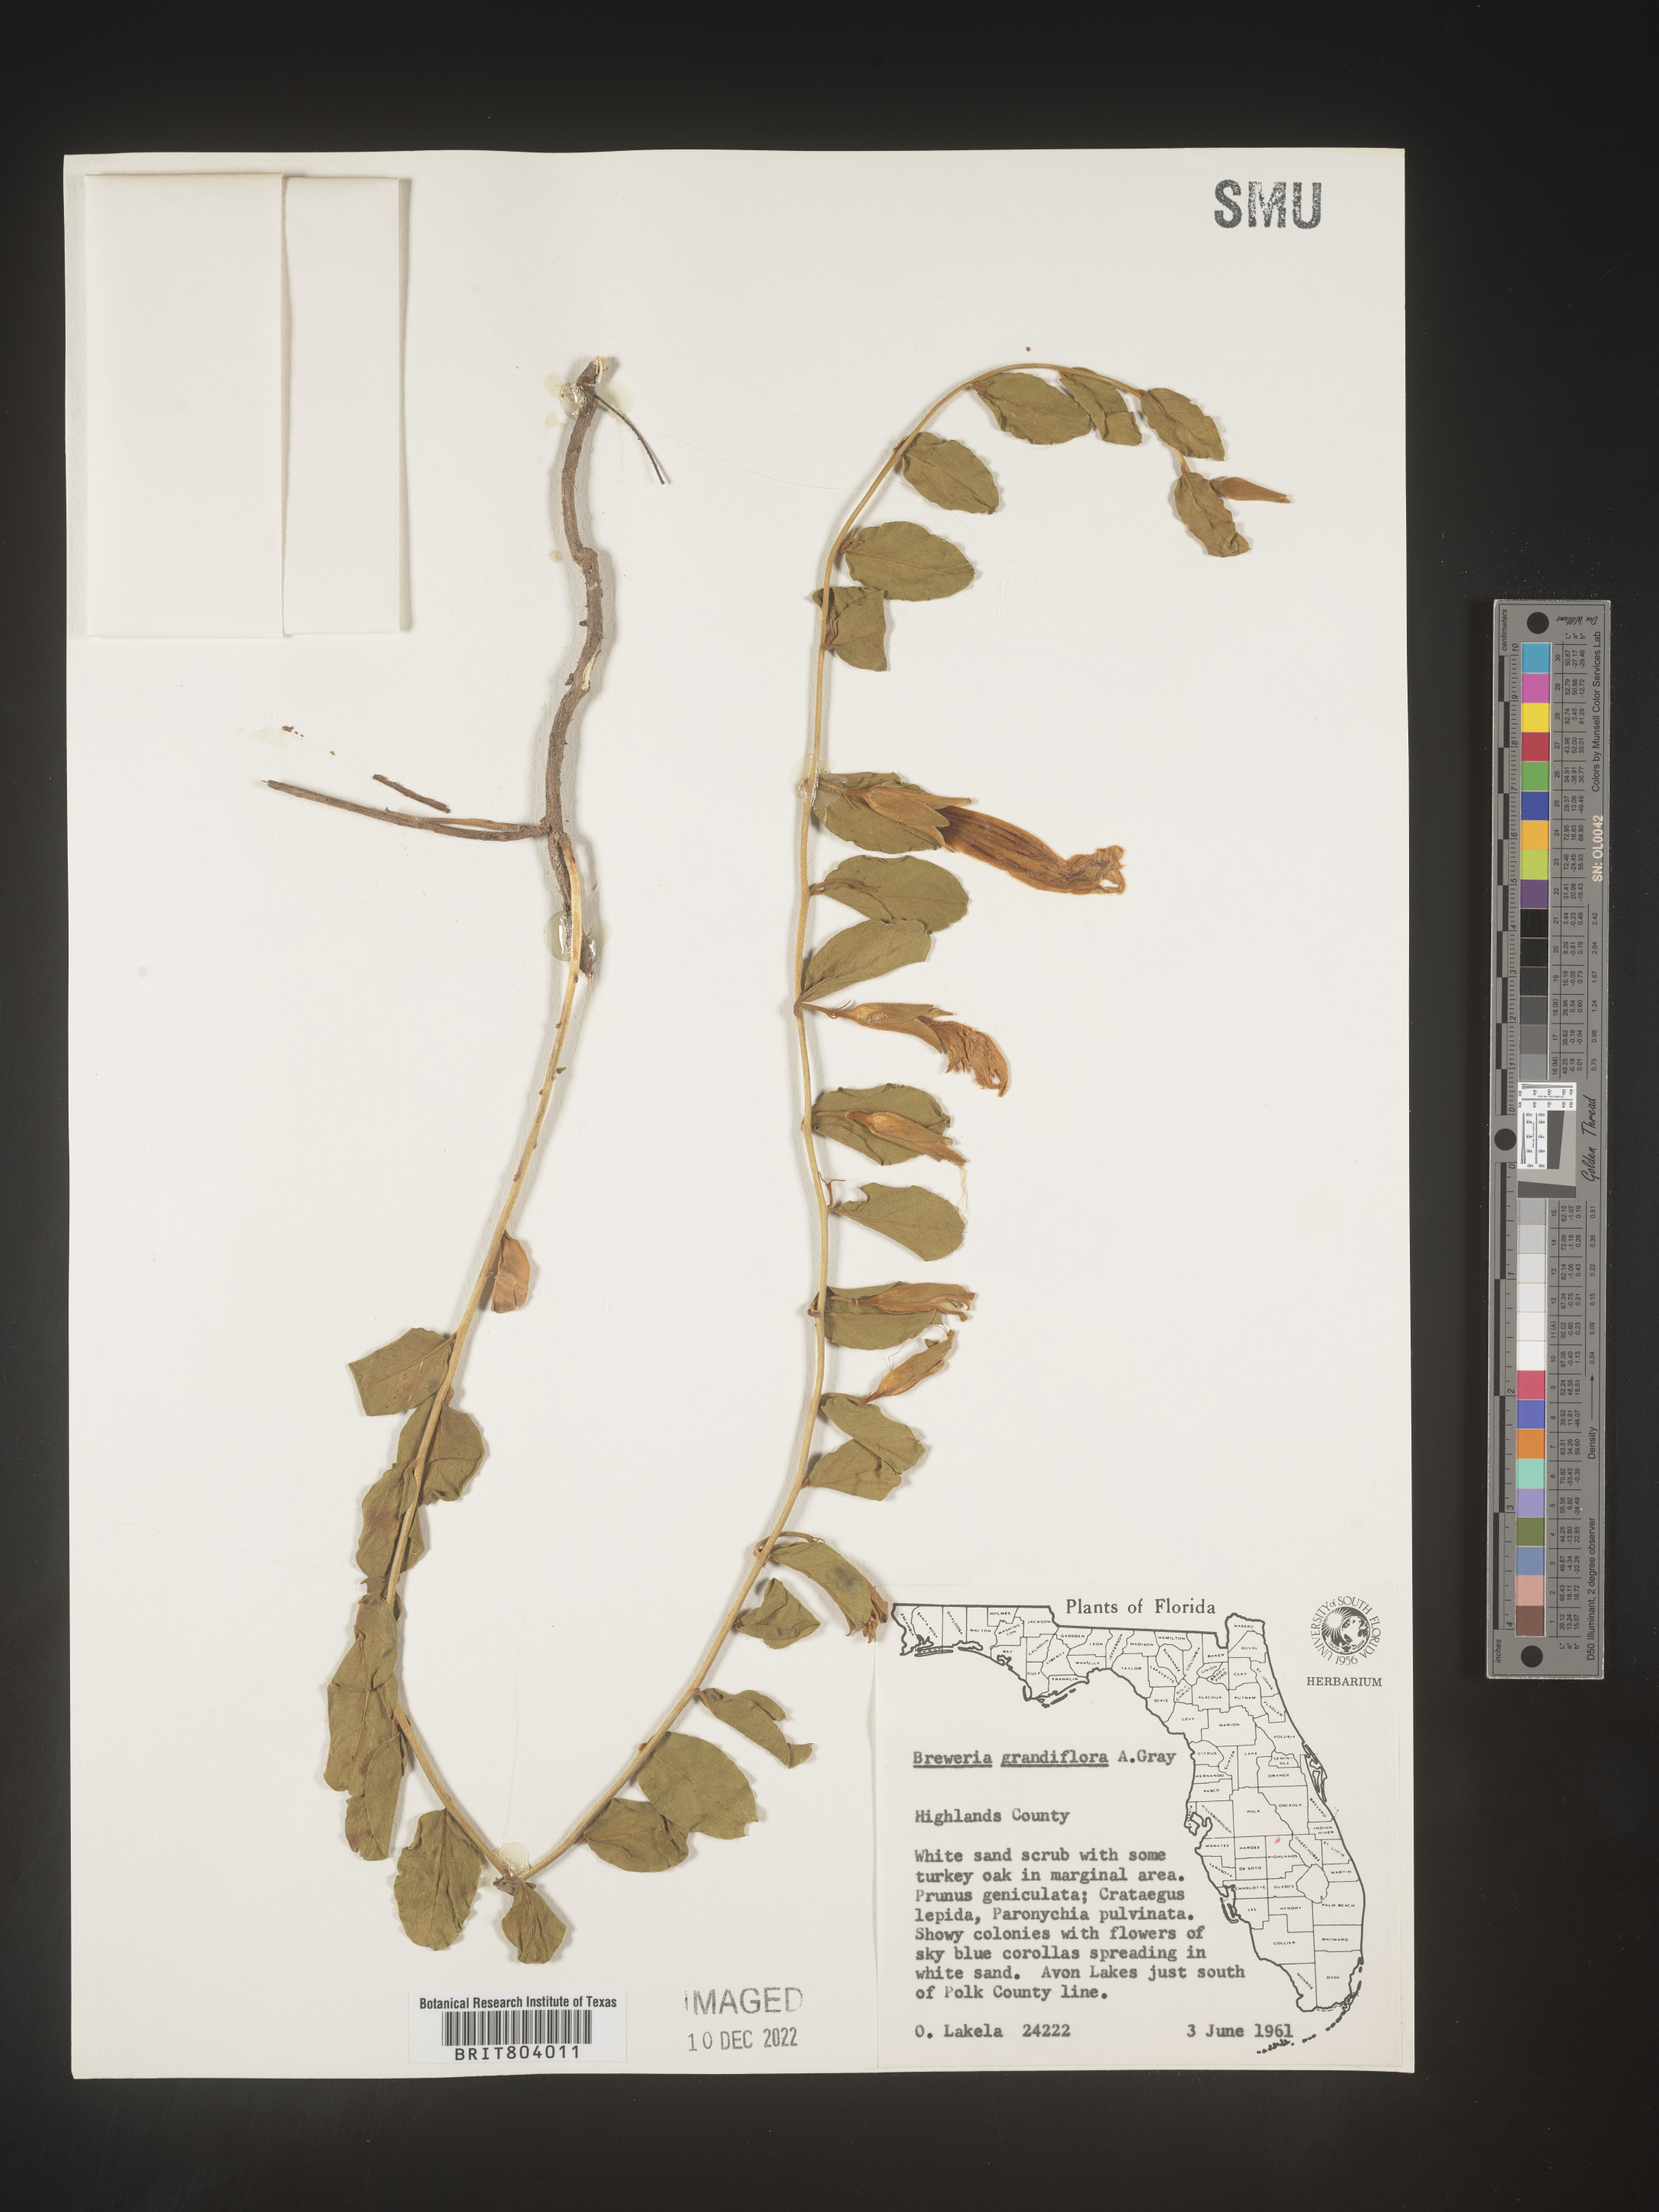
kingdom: Plantae
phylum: Tracheophyta
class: Magnoliopsida
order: Solanales
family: Convolvulaceae
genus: Bonamia
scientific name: Bonamia
